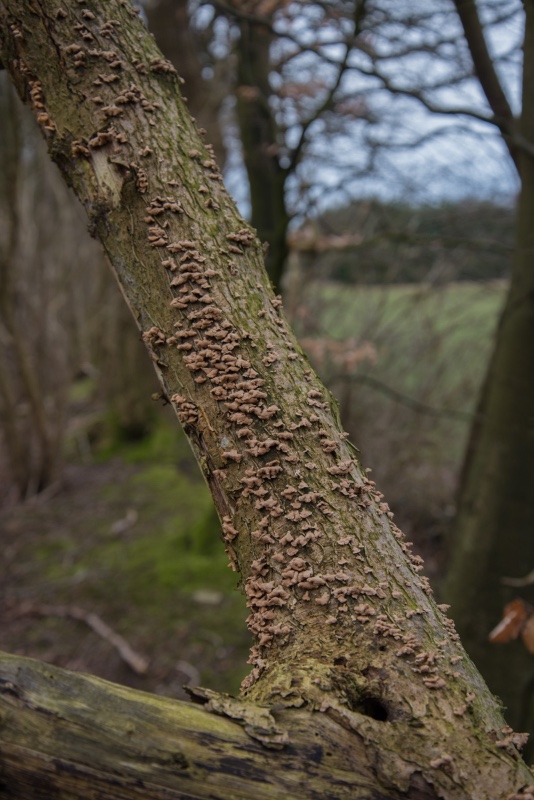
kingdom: Fungi
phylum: Basidiomycota
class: Agaricomycetes
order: Amylocorticiales
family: Amylocorticiaceae
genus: Plicaturopsis
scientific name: Plicaturopsis crispa
